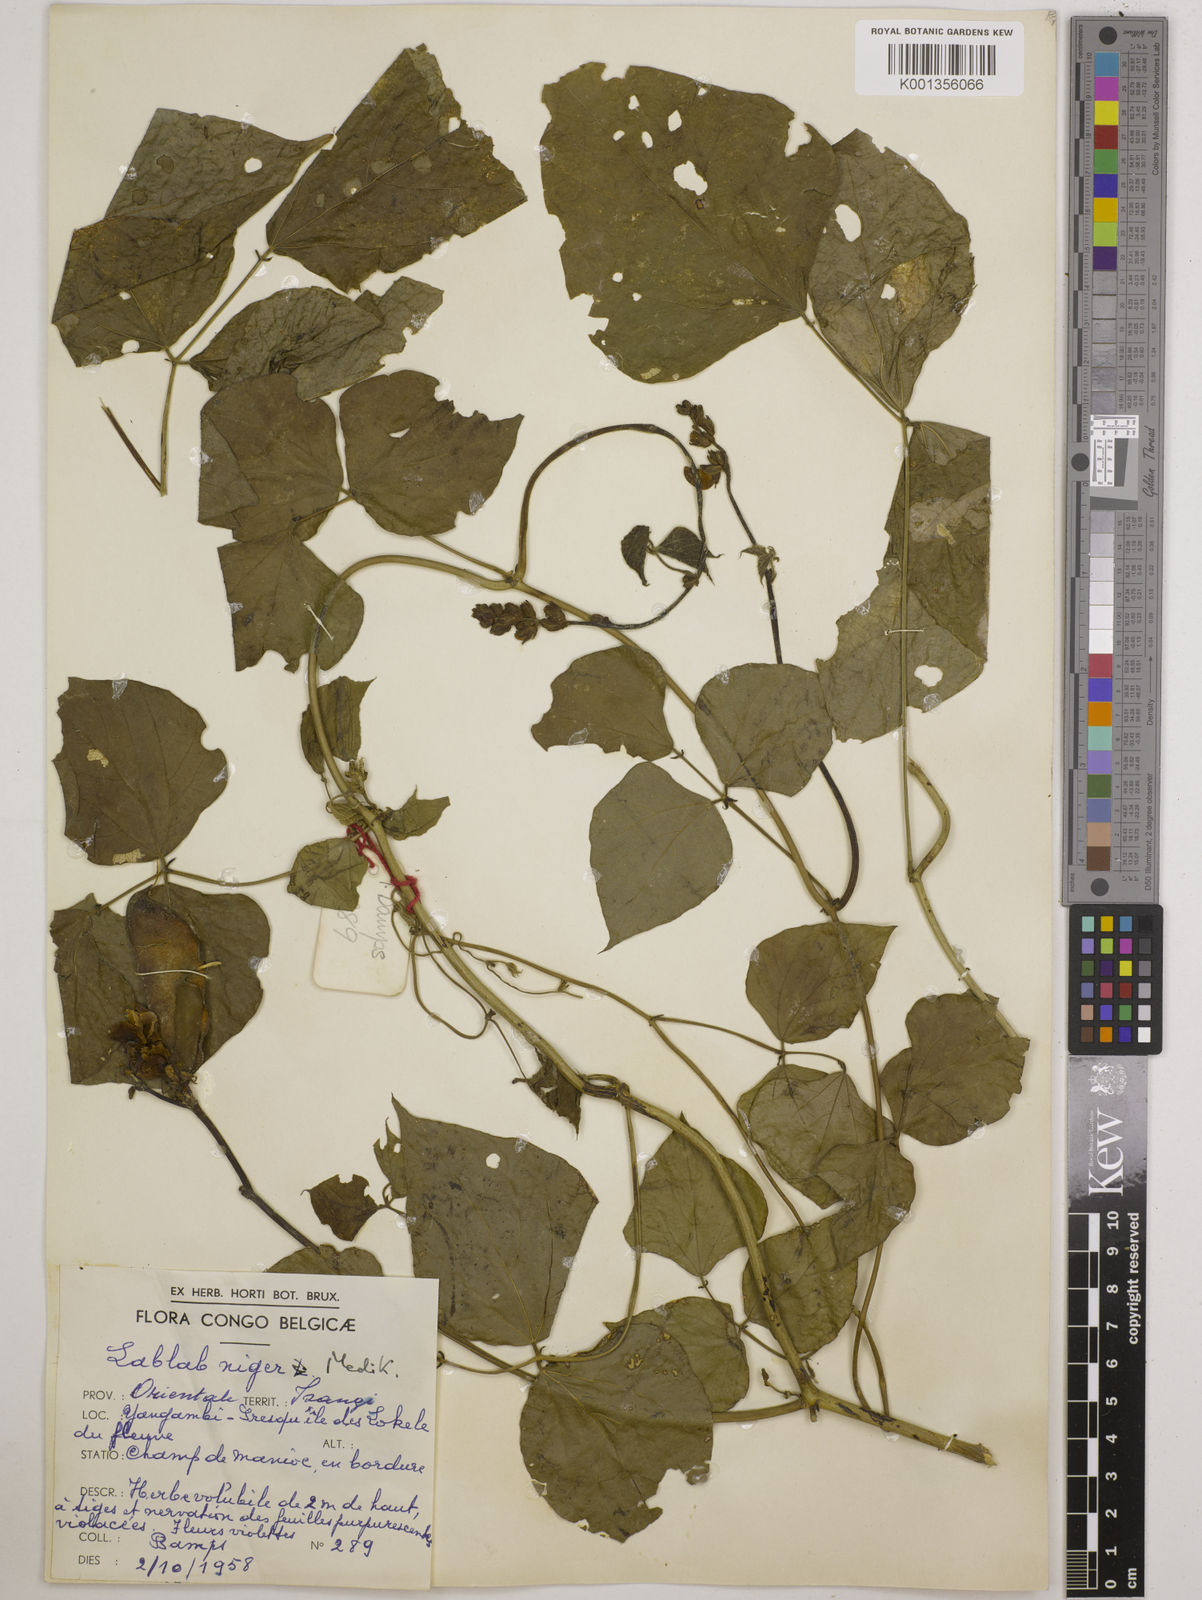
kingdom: Plantae
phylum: Tracheophyta
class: Magnoliopsida
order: Fabales
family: Fabaceae
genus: Lablab
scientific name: Lablab purpureus
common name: Lablab-bean
